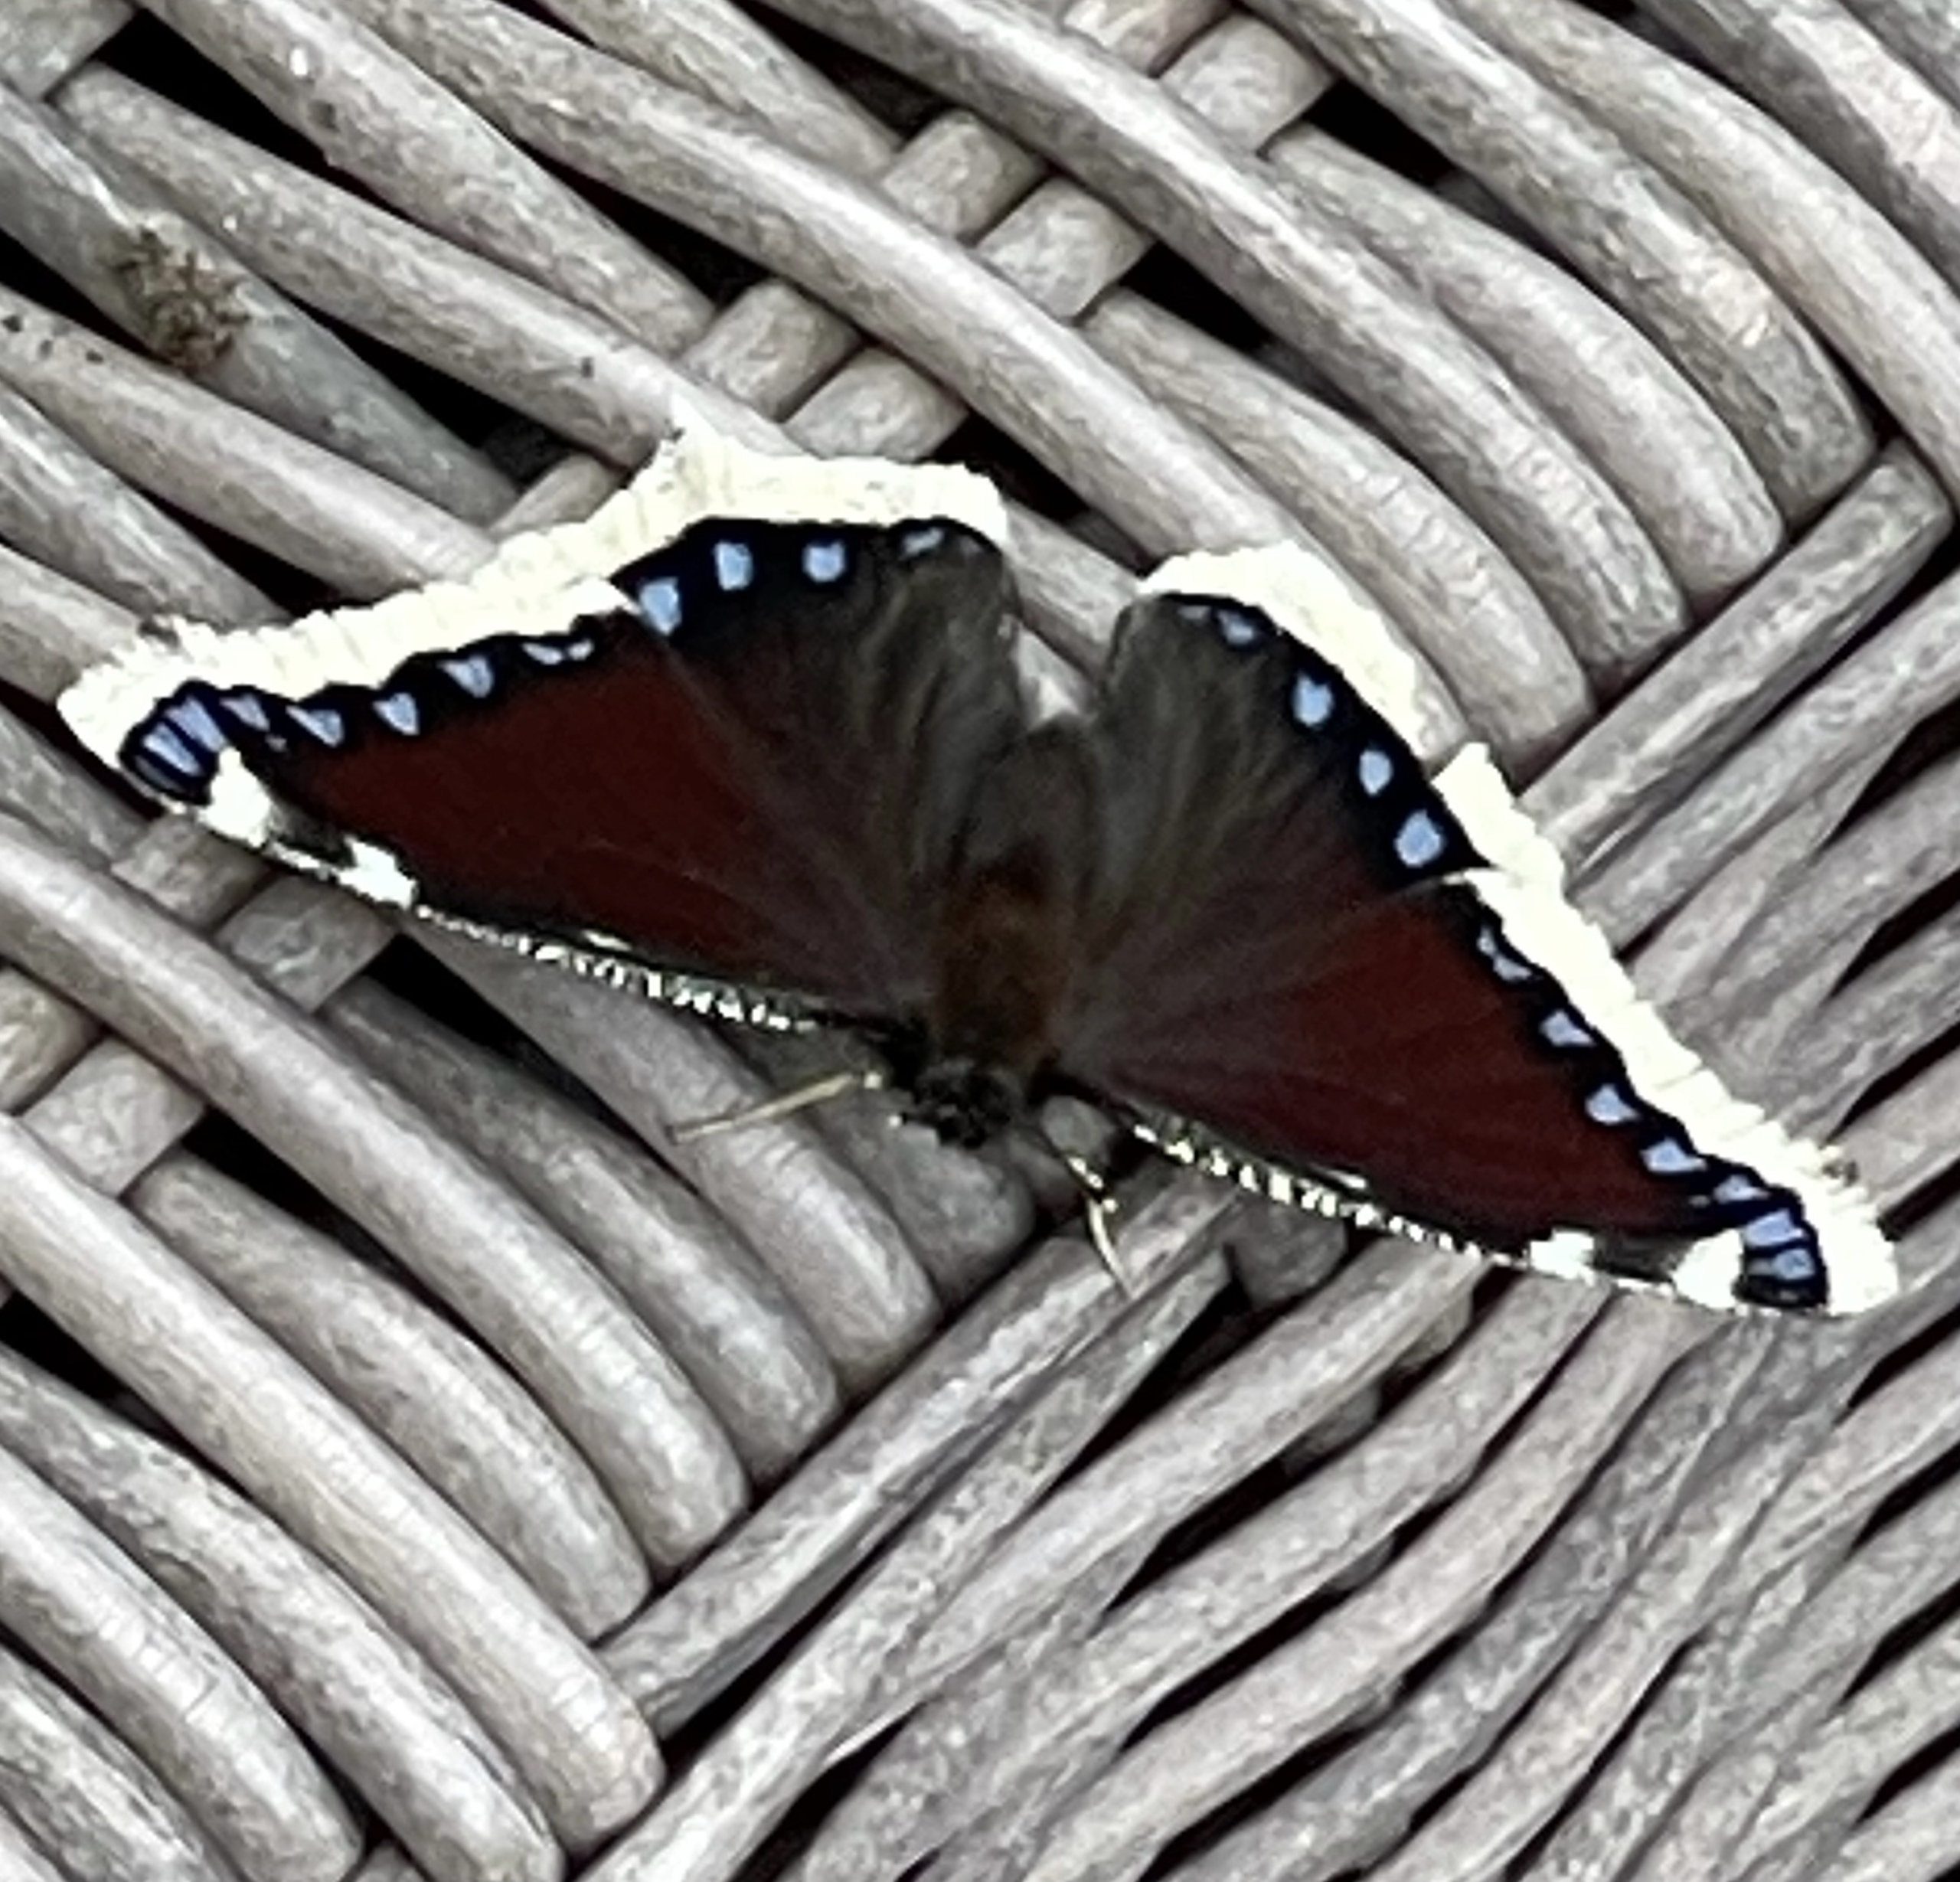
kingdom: Animalia
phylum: Arthropoda
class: Insecta
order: Lepidoptera
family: Nymphalidae
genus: Nymphalis
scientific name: Nymphalis antiopa
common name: Sørgekåbe
